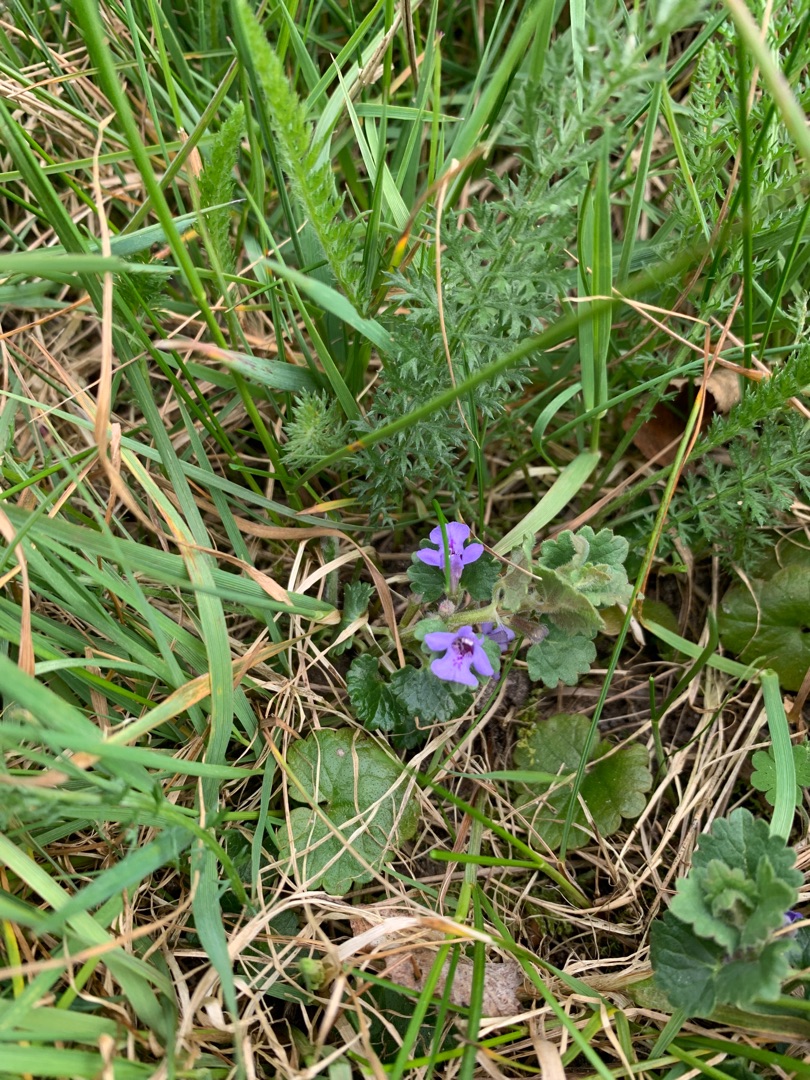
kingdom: Plantae
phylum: Tracheophyta
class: Magnoliopsida
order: Lamiales
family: Lamiaceae
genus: Glechoma
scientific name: Glechoma hederacea
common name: Korsknap
